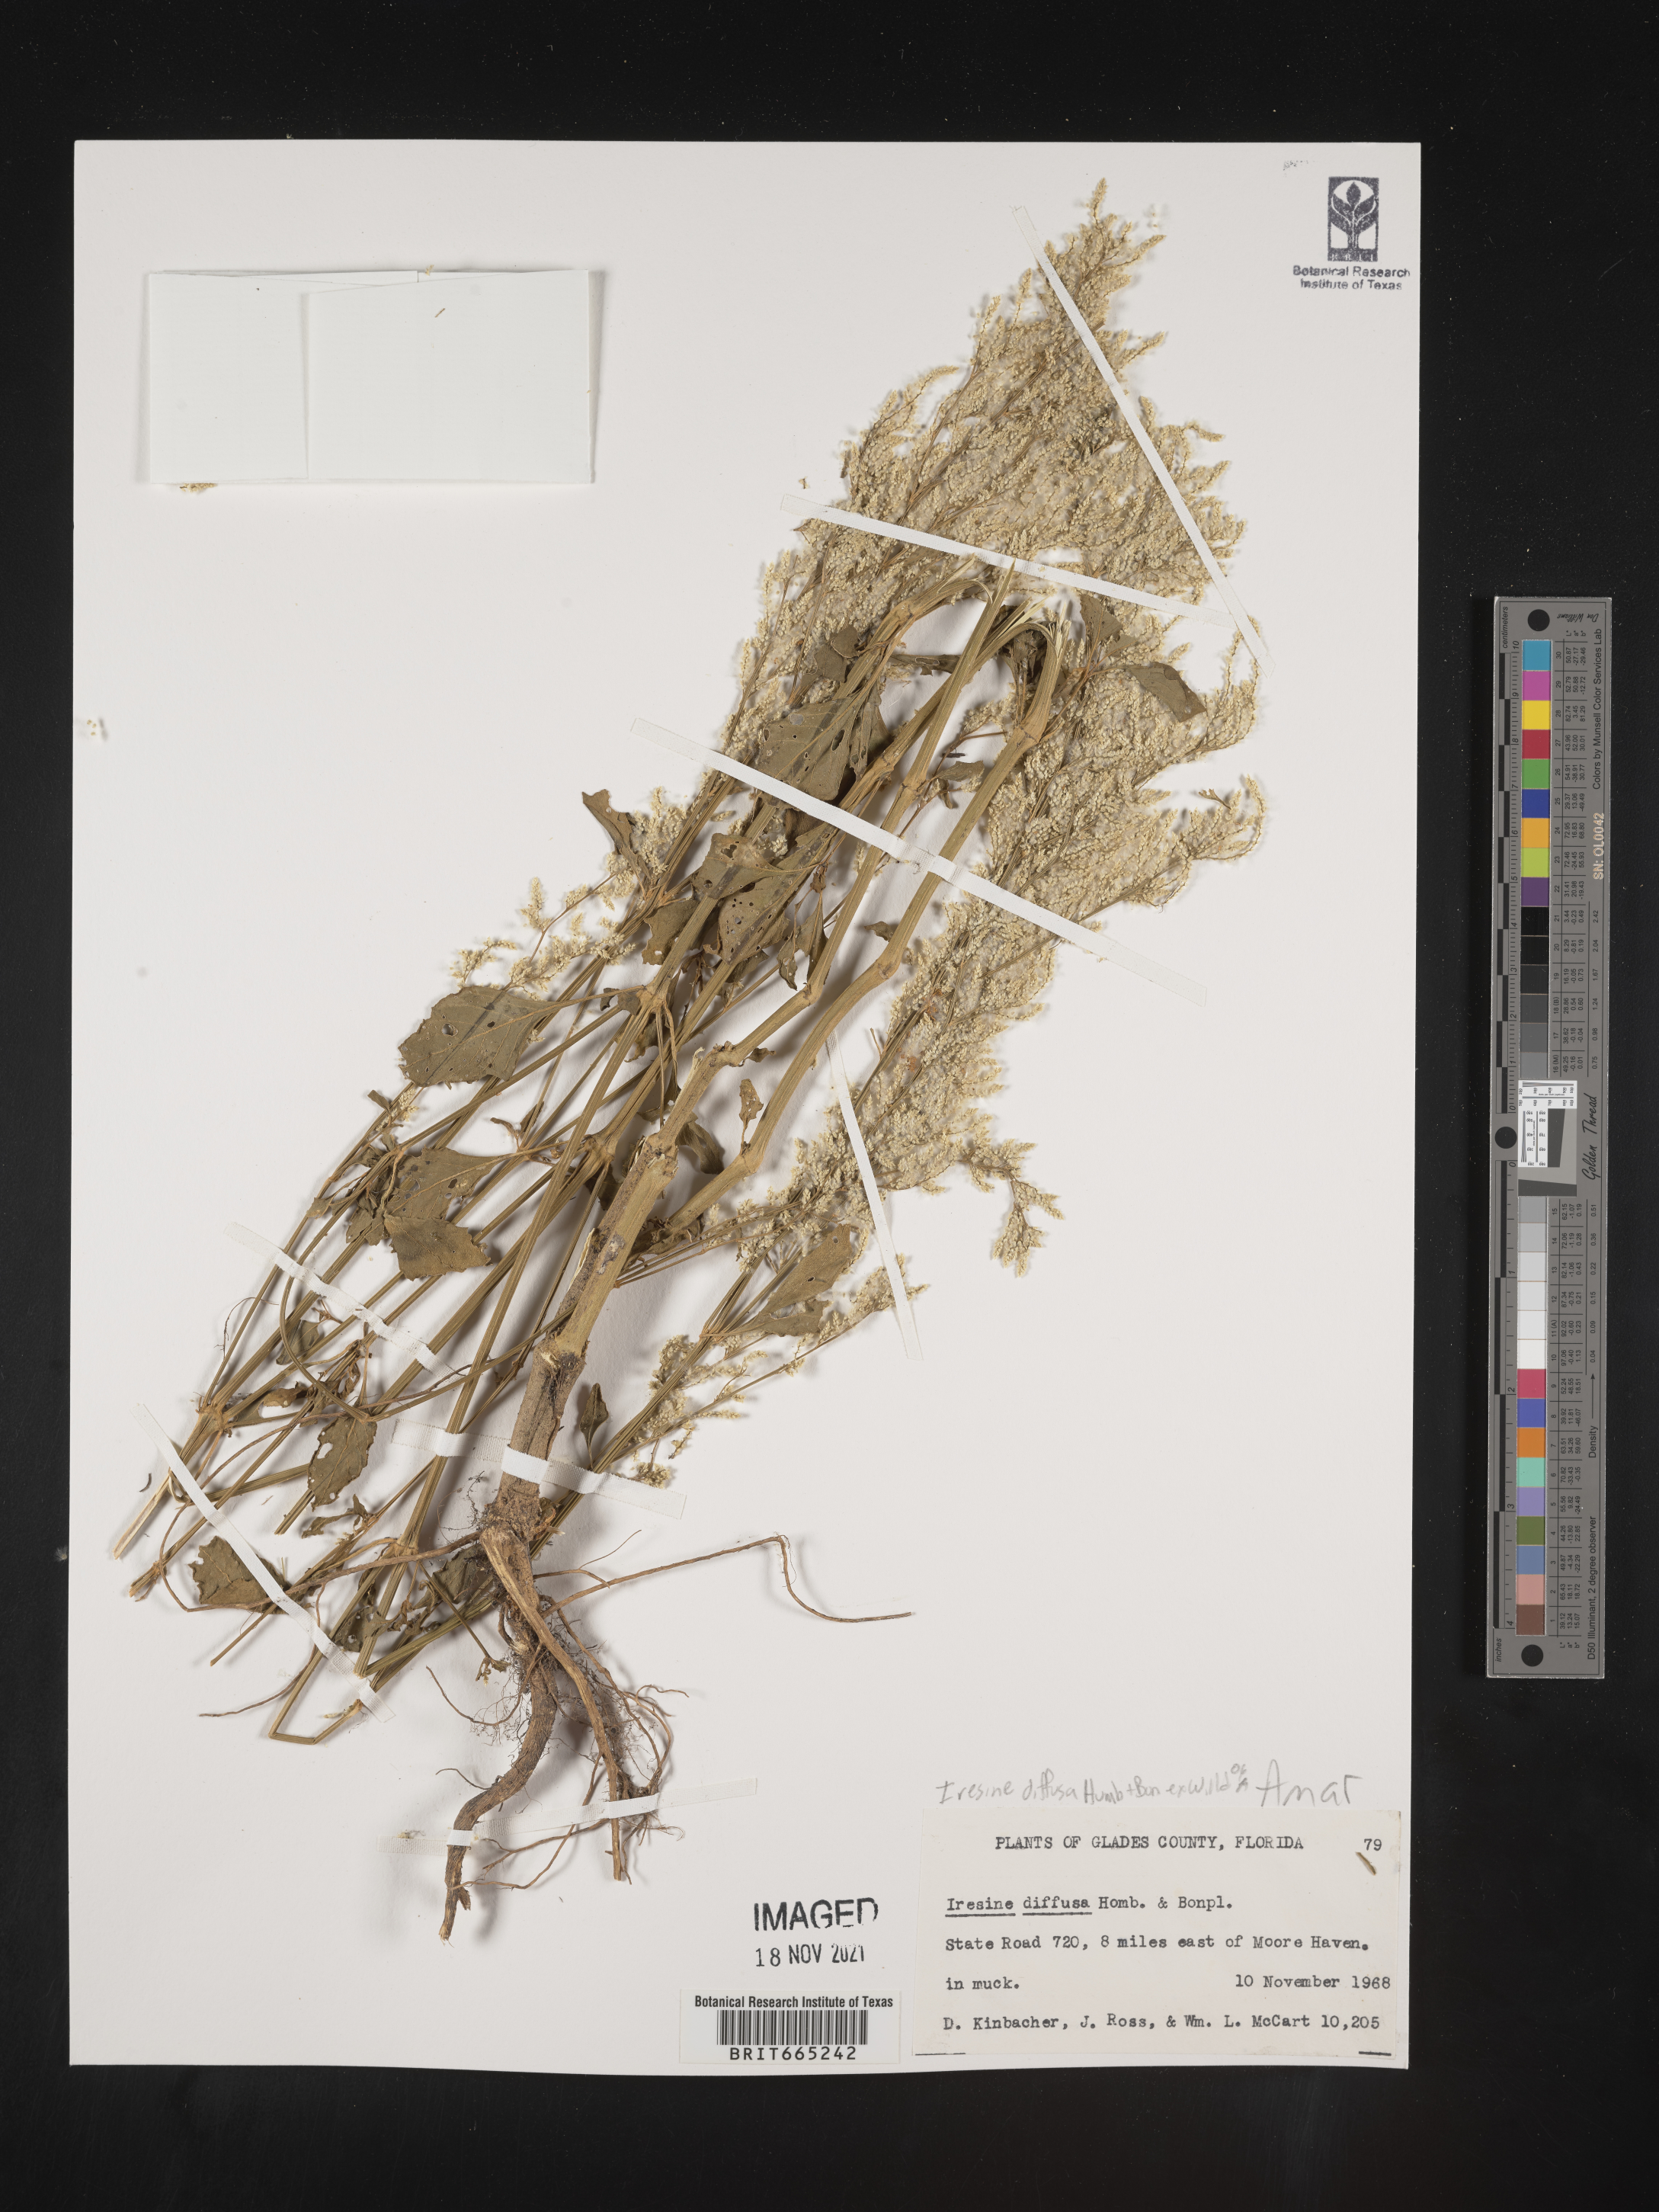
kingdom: Plantae
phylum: Tracheophyta
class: Magnoliopsida
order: Caryophyllales
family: Amaranthaceae
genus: Iresine
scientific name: Iresine
